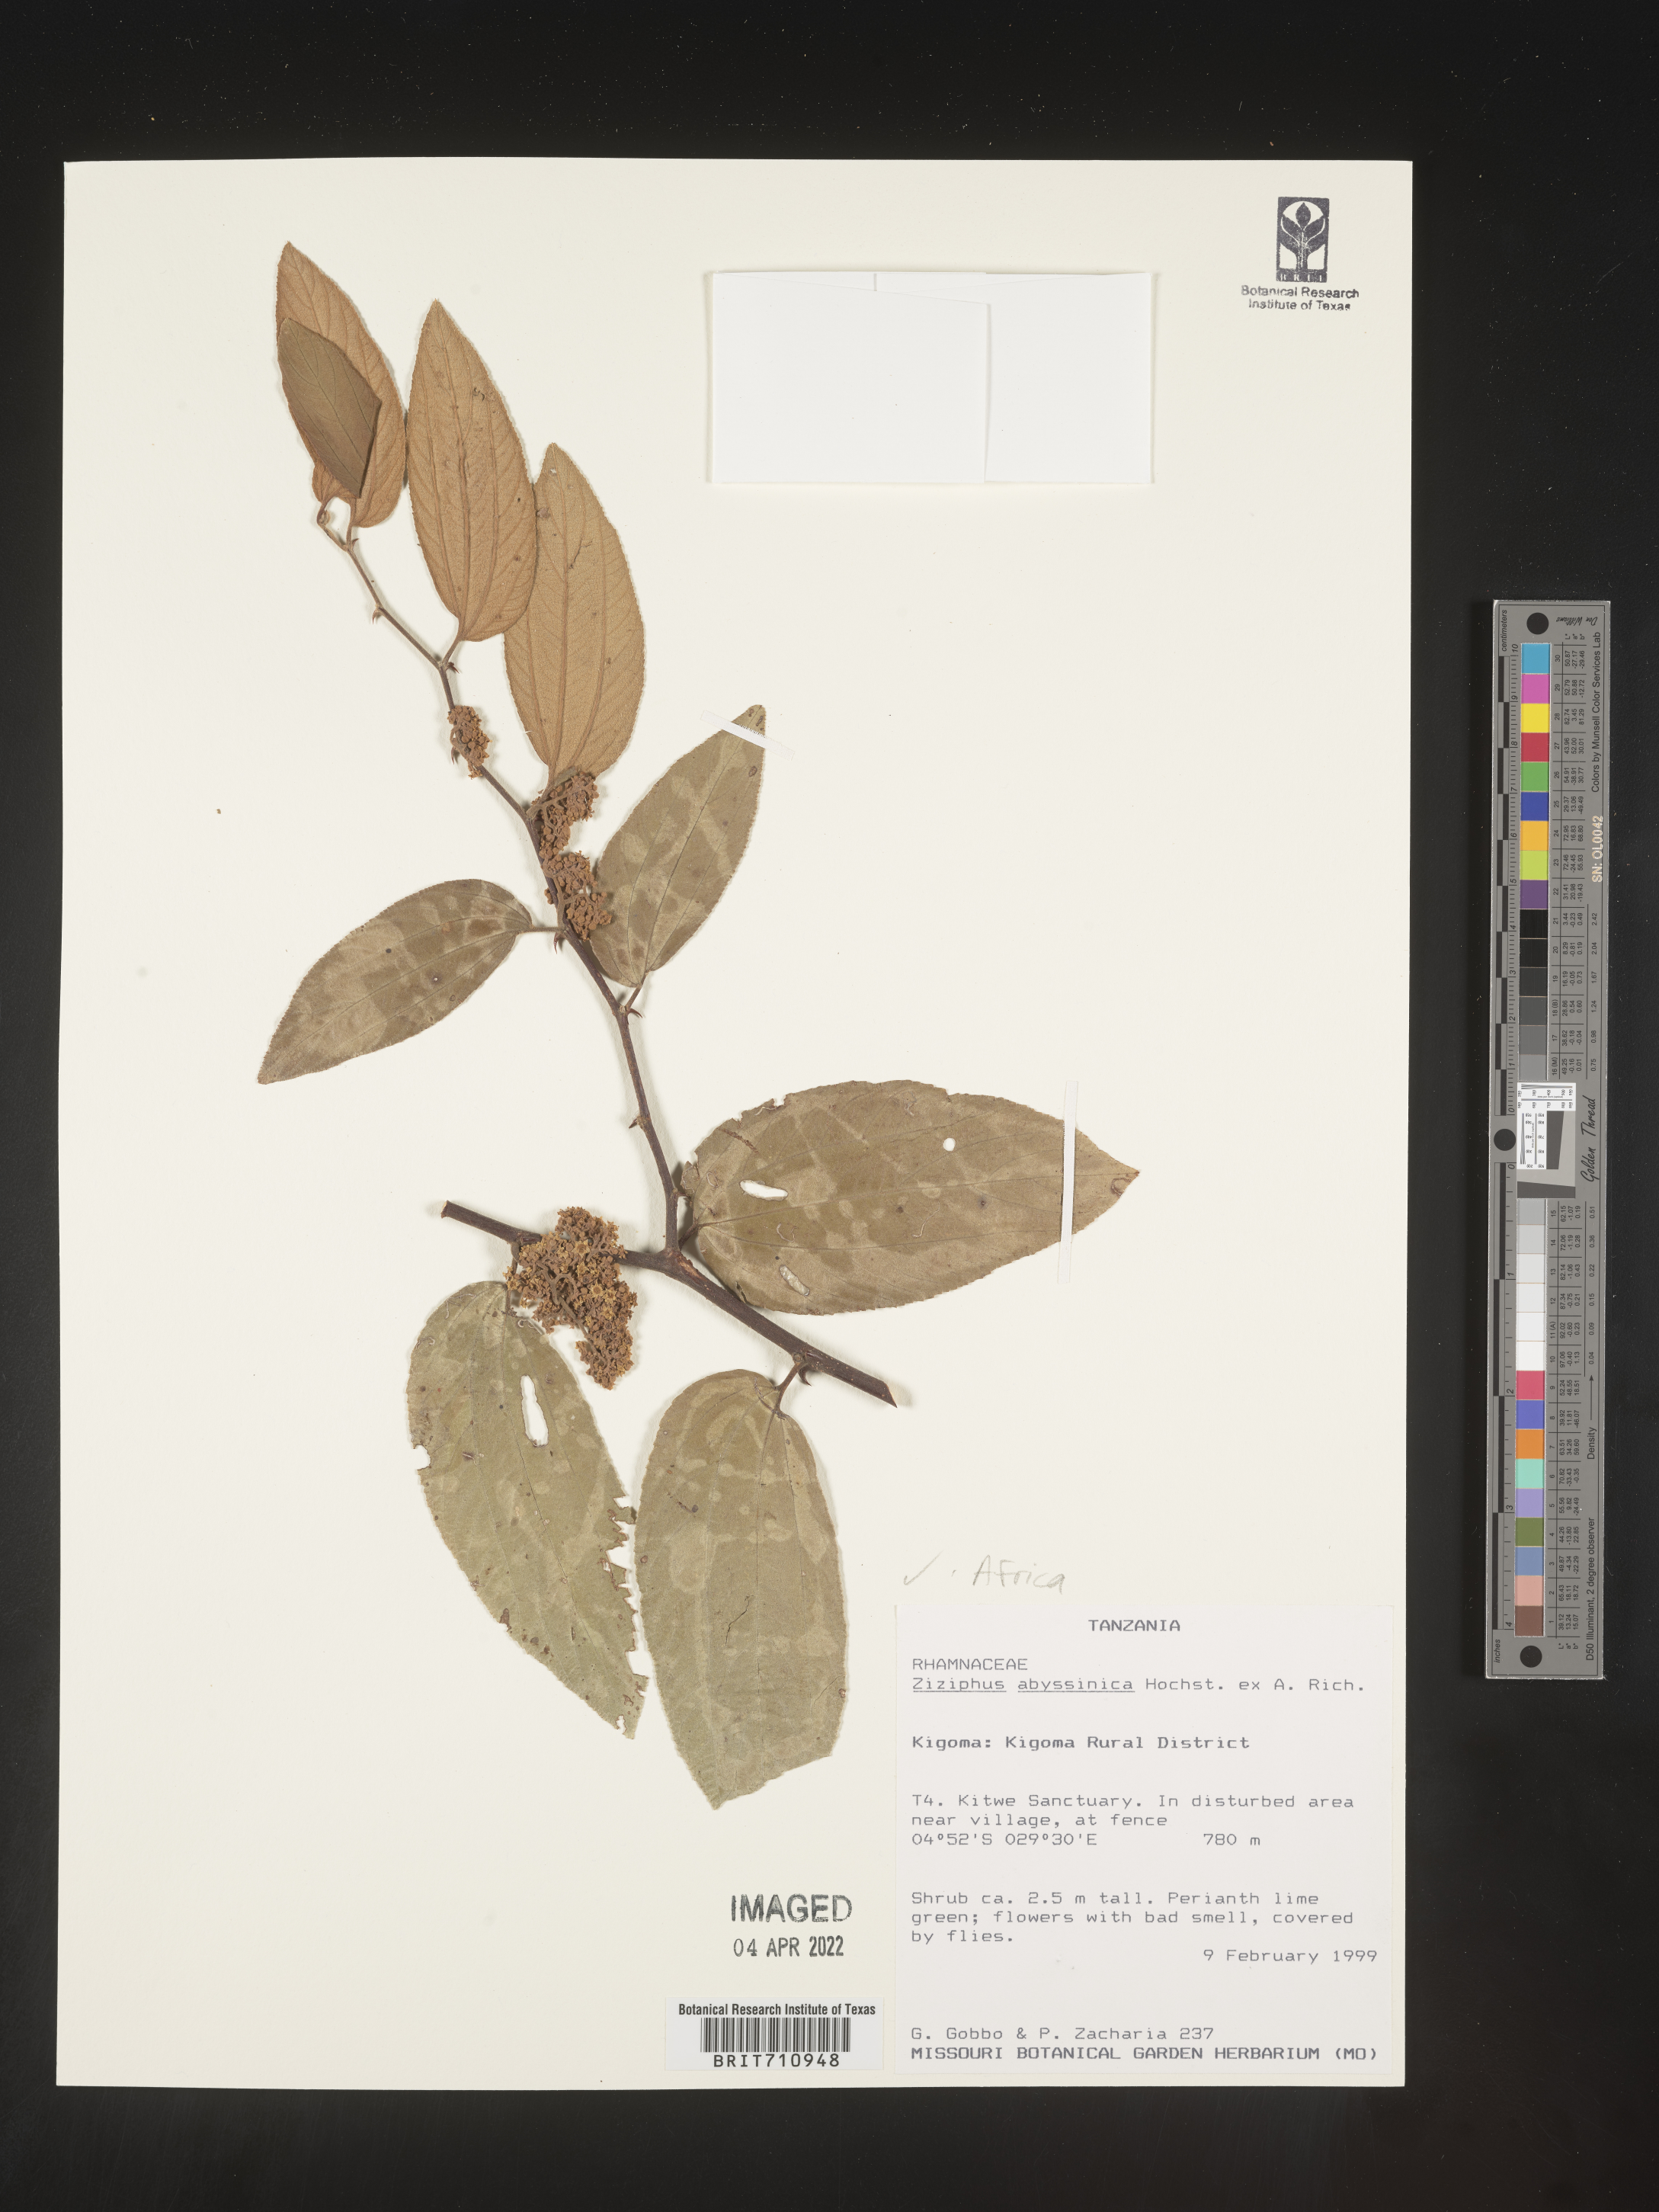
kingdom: Plantae
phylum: Tracheophyta
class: Magnoliopsida
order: Rosales
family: Rhamnaceae
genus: Ziziphus
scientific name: Ziziphus
